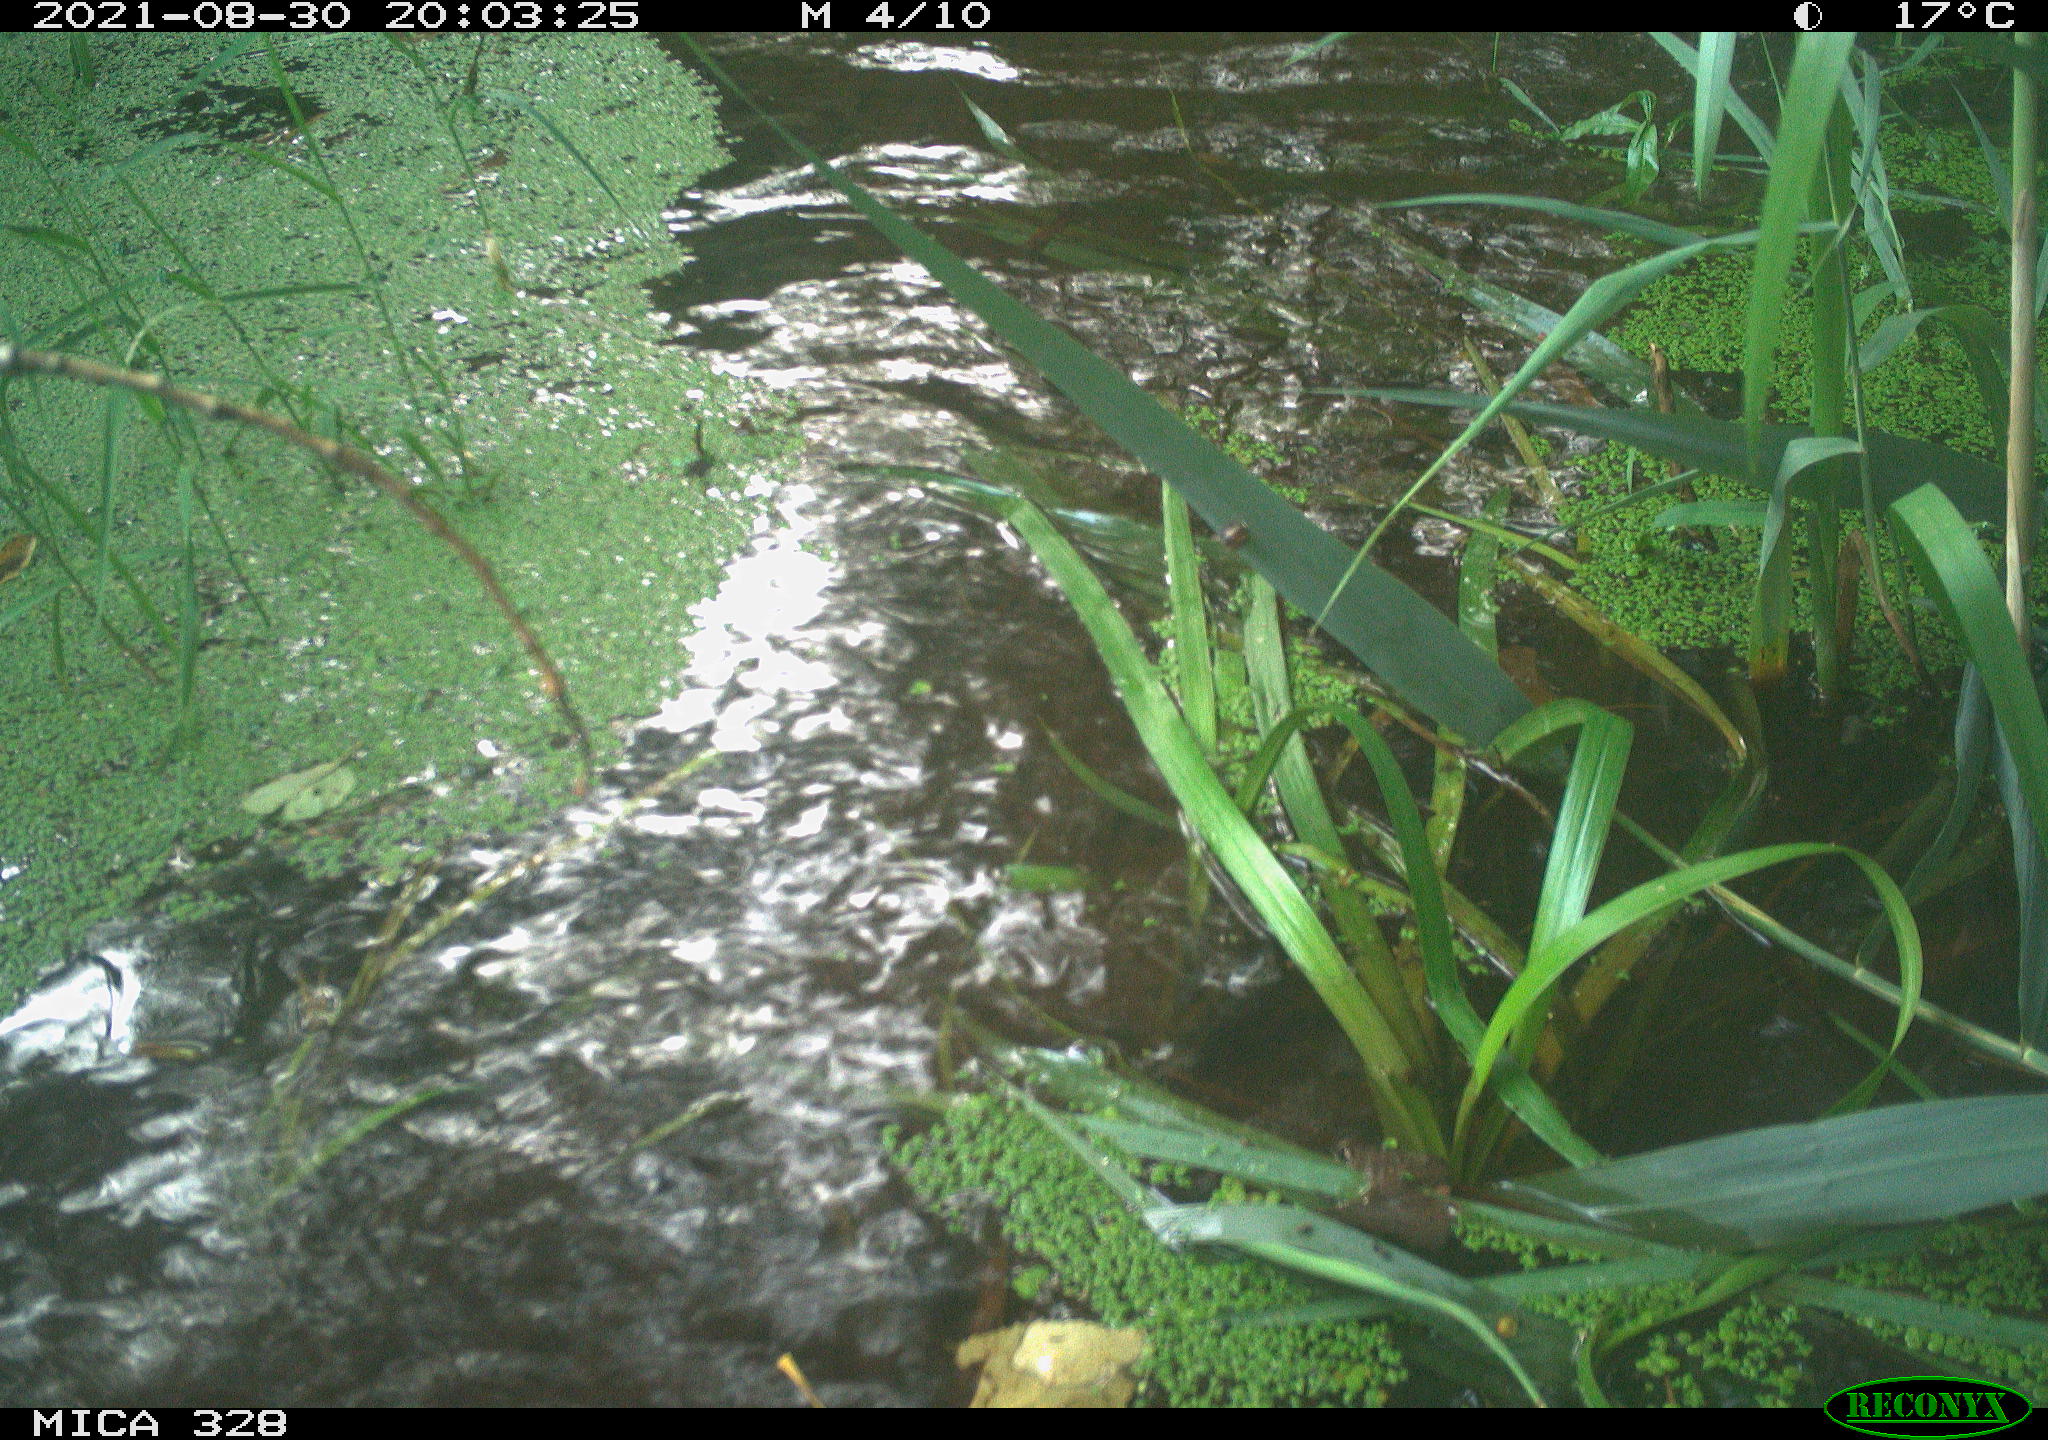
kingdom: Animalia
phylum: Chordata
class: Mammalia
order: Rodentia
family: Cricetidae
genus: Ondatra
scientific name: Ondatra zibethicus
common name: Muskrat
